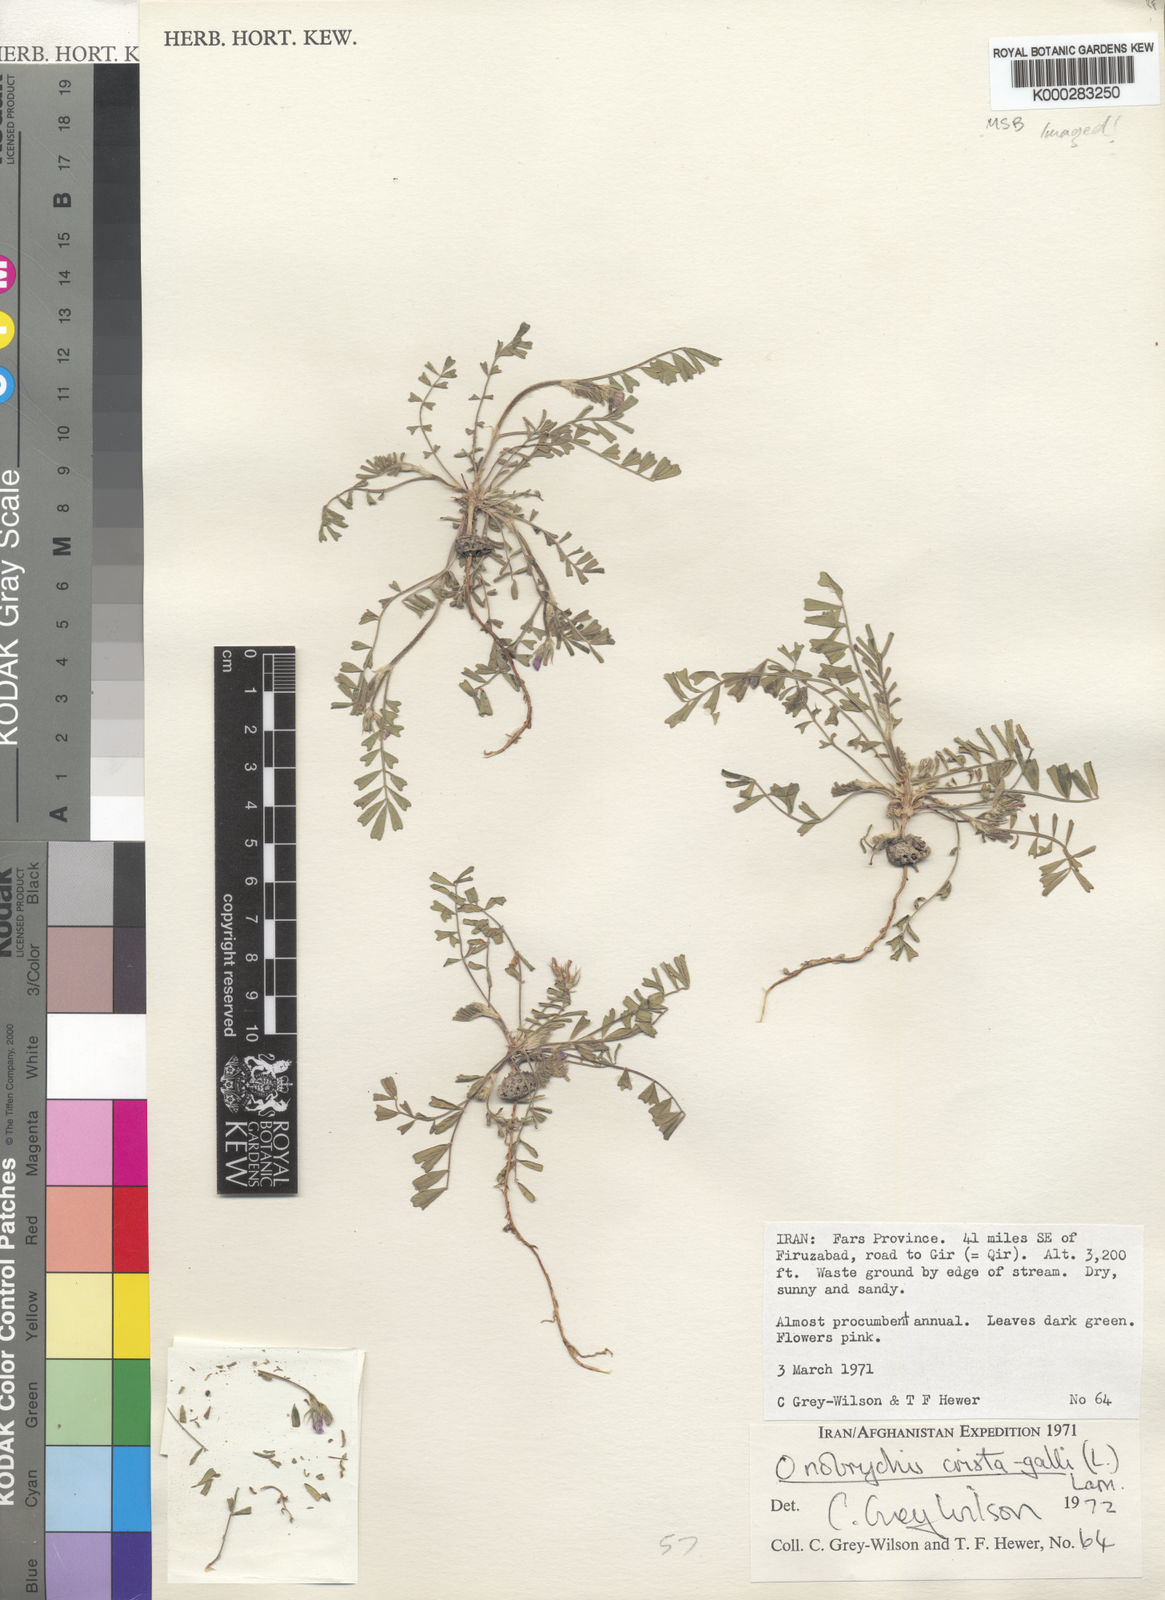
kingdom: Plantae
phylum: Tracheophyta
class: Magnoliopsida
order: Fabales
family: Fabaceae
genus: Onobrychis
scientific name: Onobrychis crista-galli
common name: Cockscomb sainfoin
